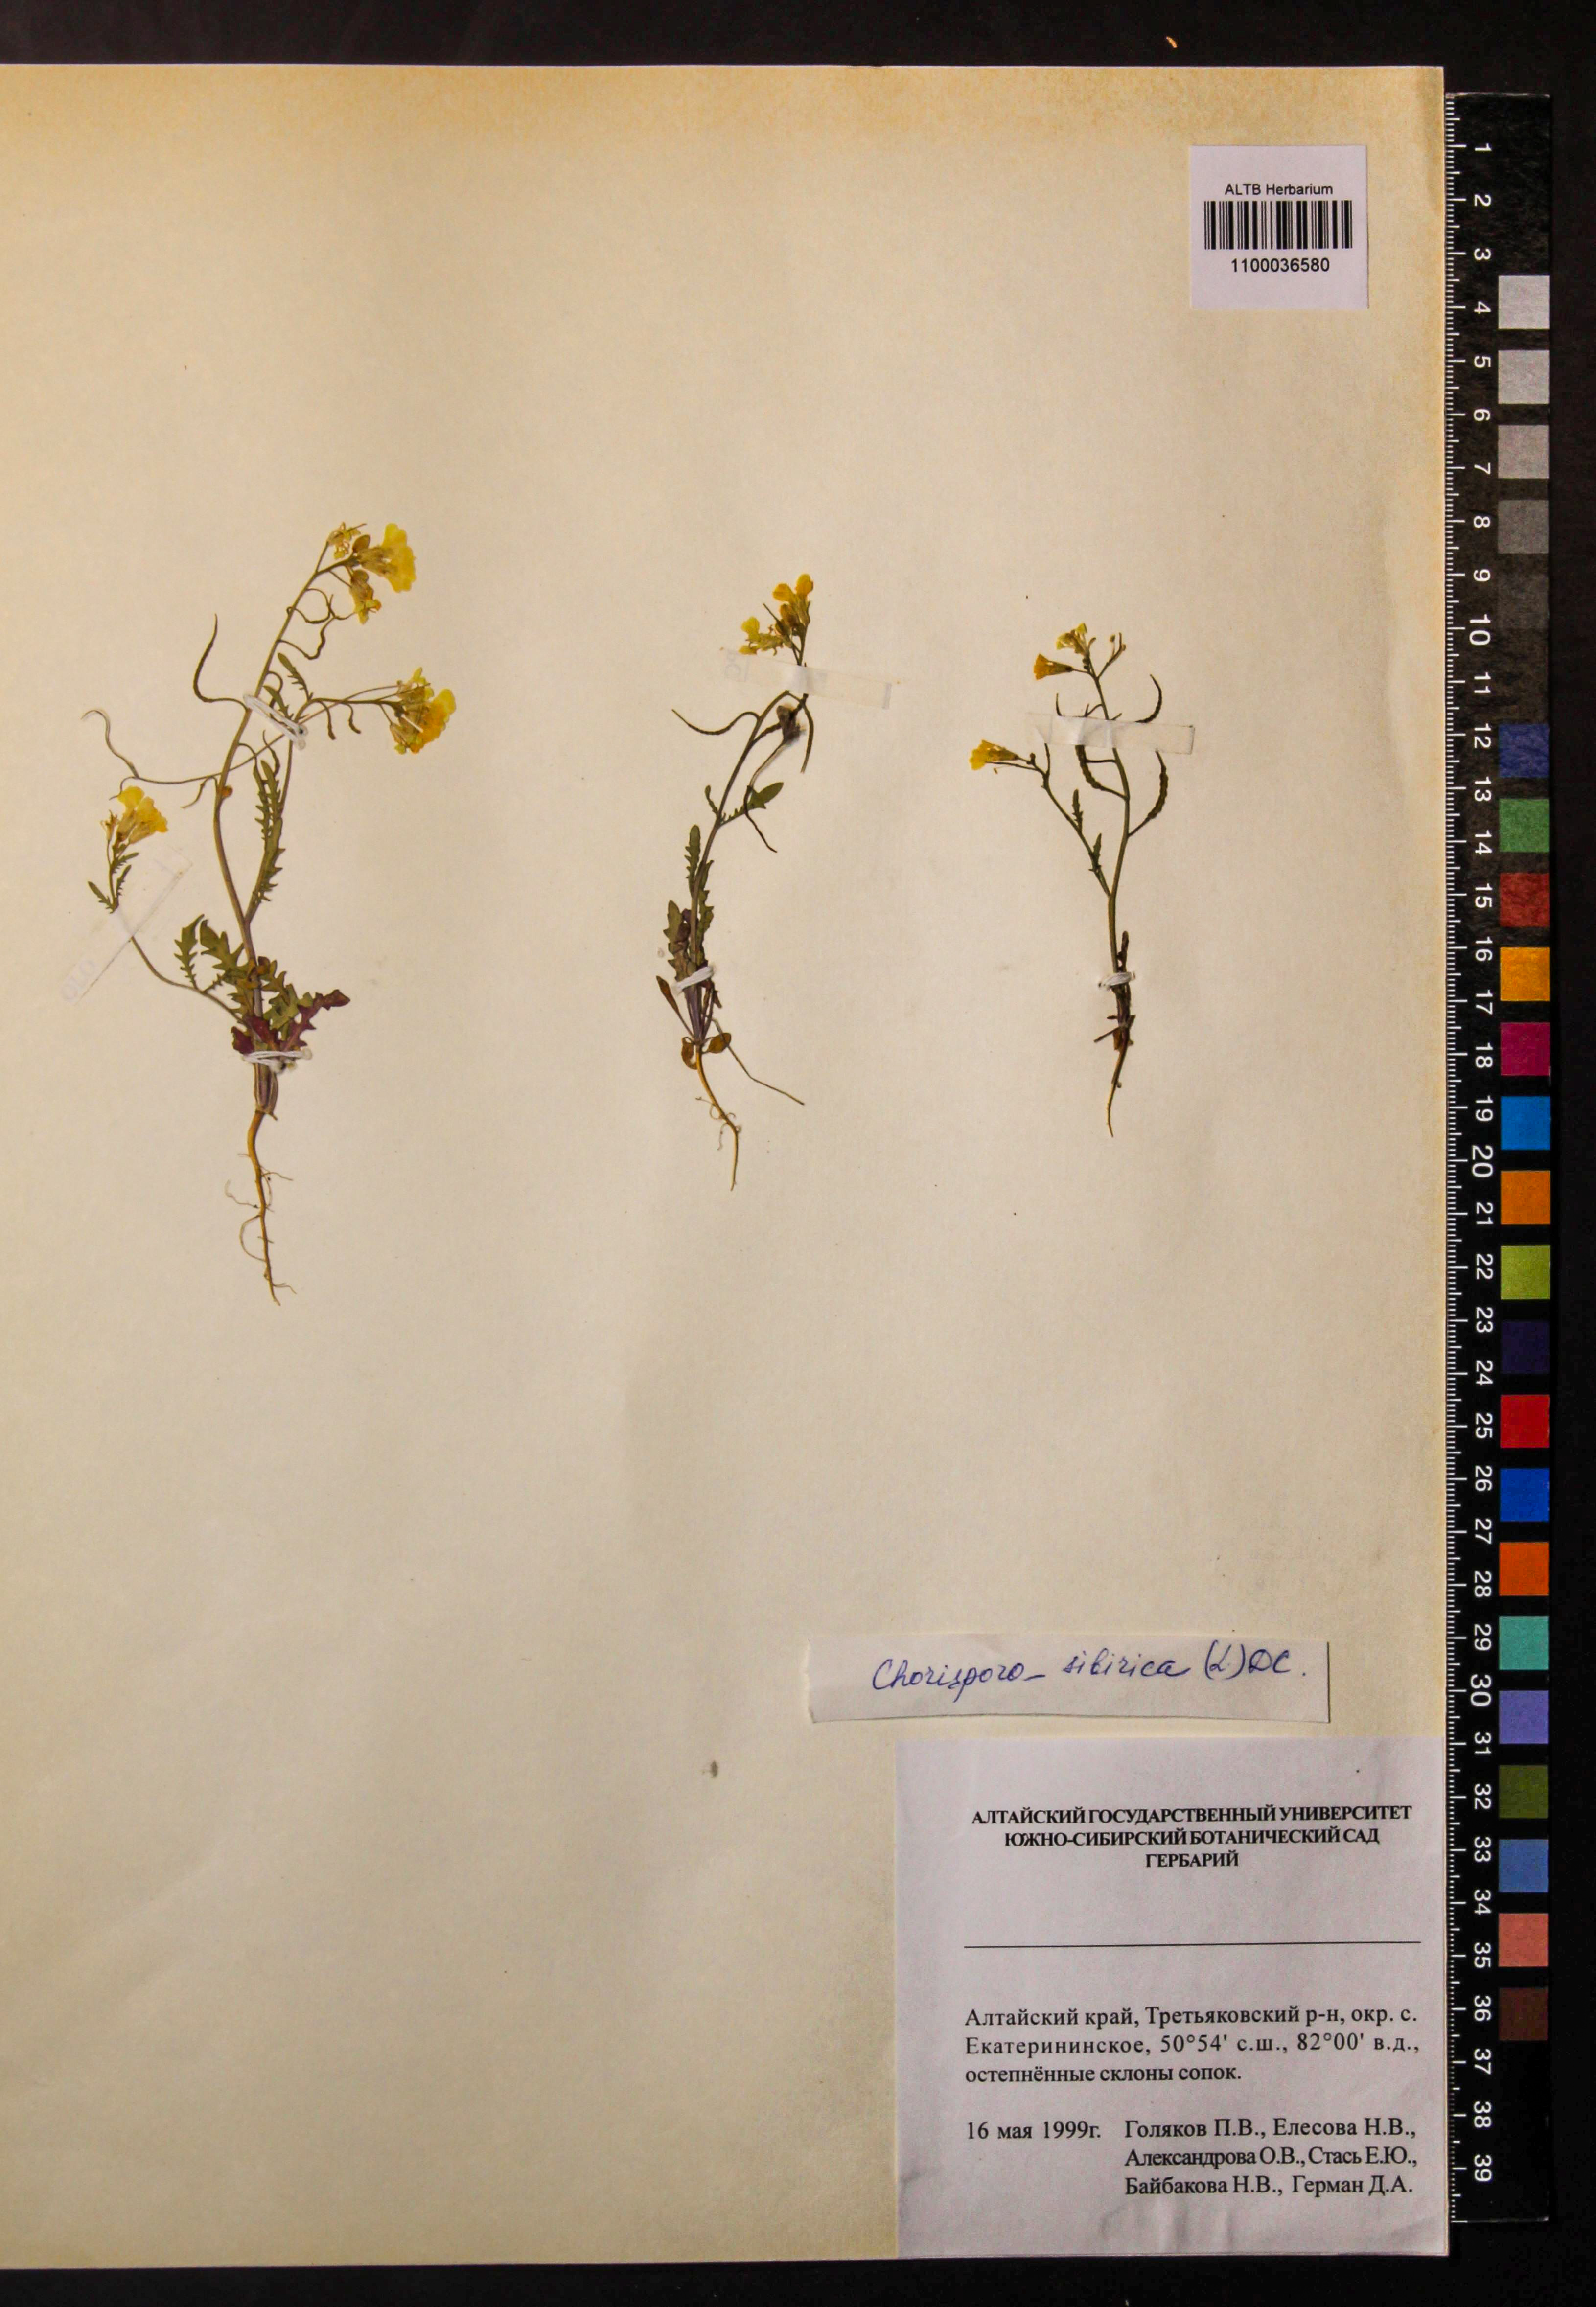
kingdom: Plantae
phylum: Tracheophyta
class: Magnoliopsida
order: Brassicales
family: Brassicaceae
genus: Chorispora
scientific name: Chorispora sibirica
